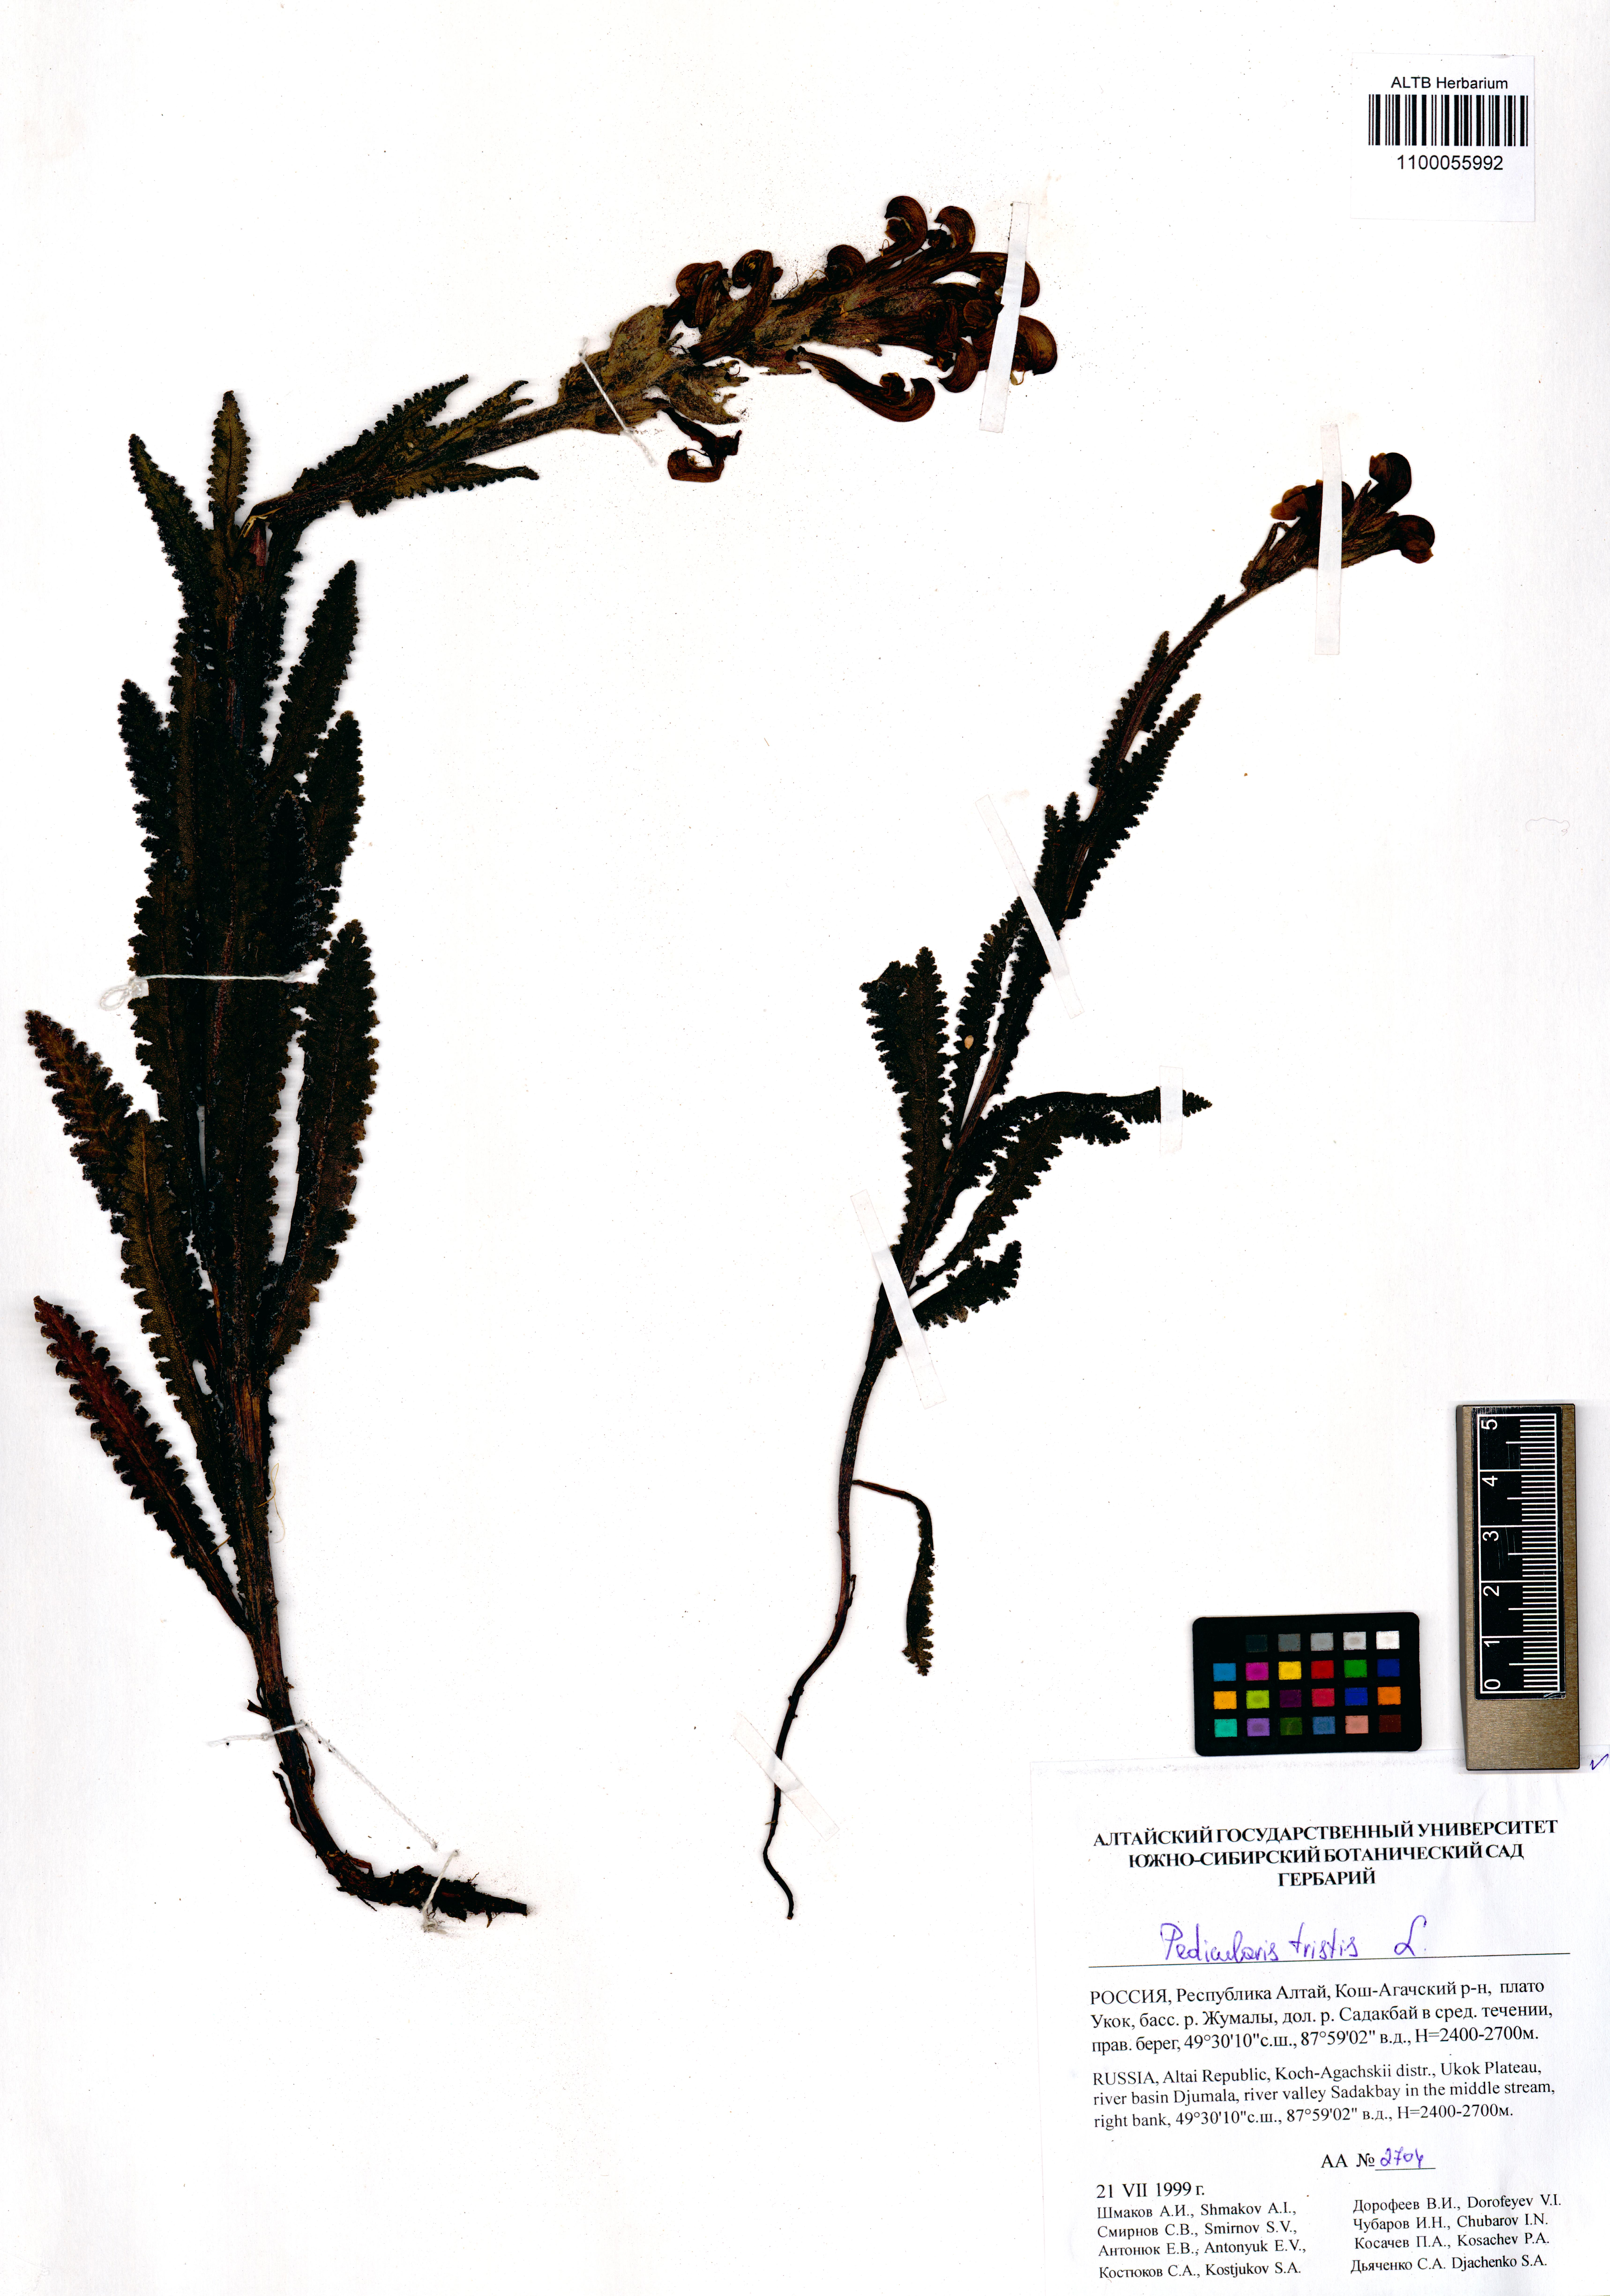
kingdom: Plantae
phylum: Tracheophyta
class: Magnoliopsida
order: Lamiales
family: Orobanchaceae
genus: Pedicularis
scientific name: Pedicularis tristis
